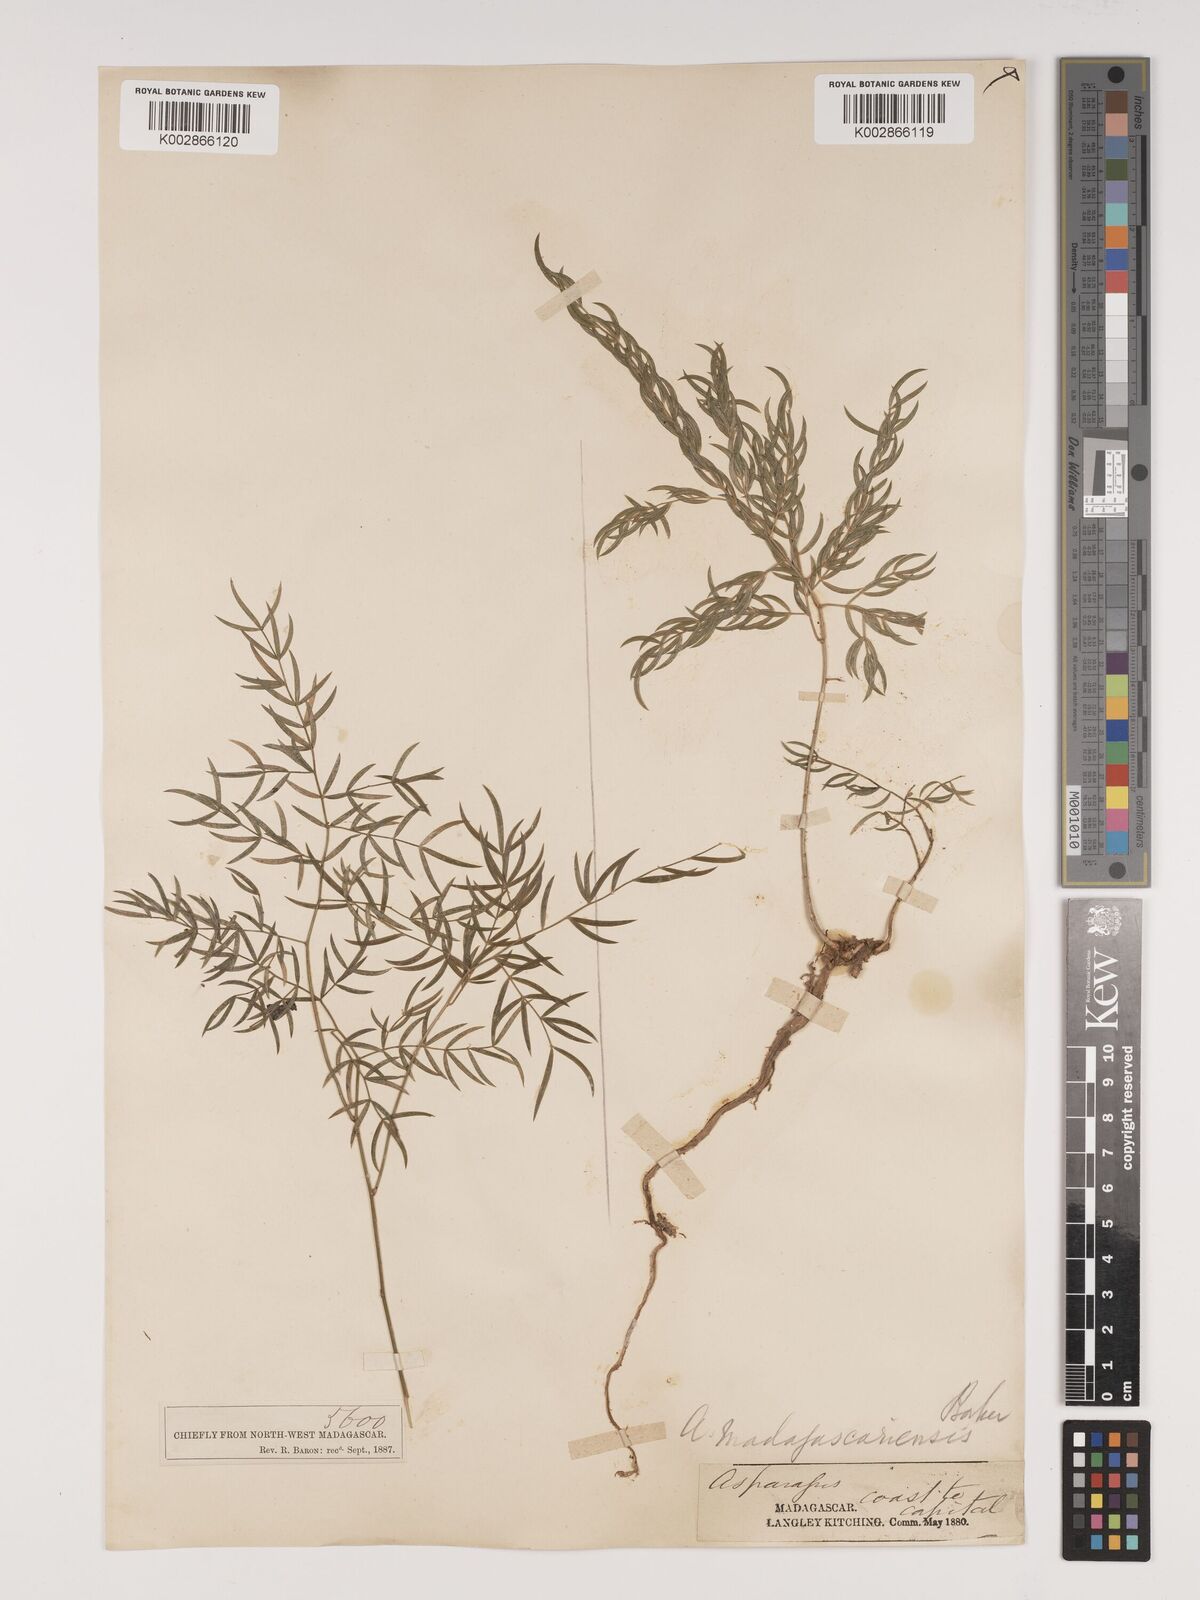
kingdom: Plantae
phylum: Tracheophyta
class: Liliopsida
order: Asparagales
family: Asparagaceae
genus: Asparagus
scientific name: Asparagus simulans
